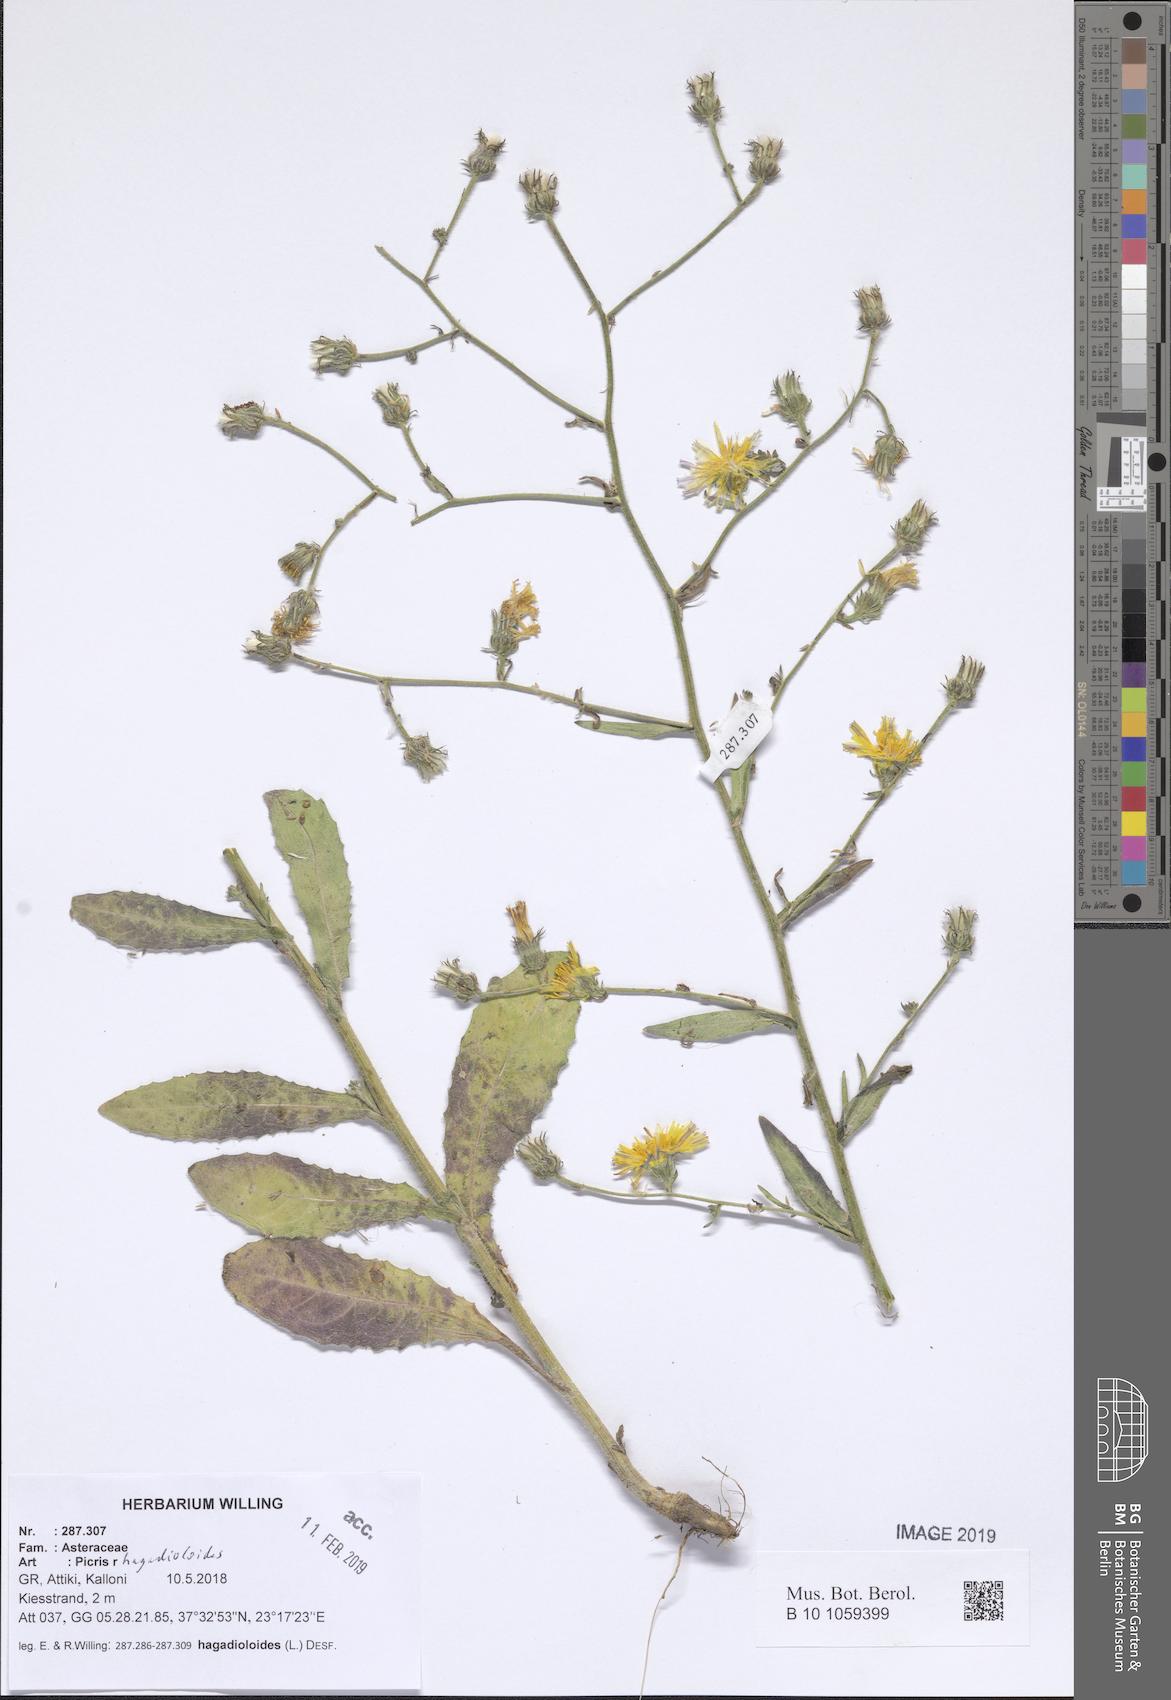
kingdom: Plantae
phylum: Tracheophyta
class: Magnoliopsida
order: Asterales
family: Asteraceae
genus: Picris
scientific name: Picris rhagadioloides
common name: Oxtongue
